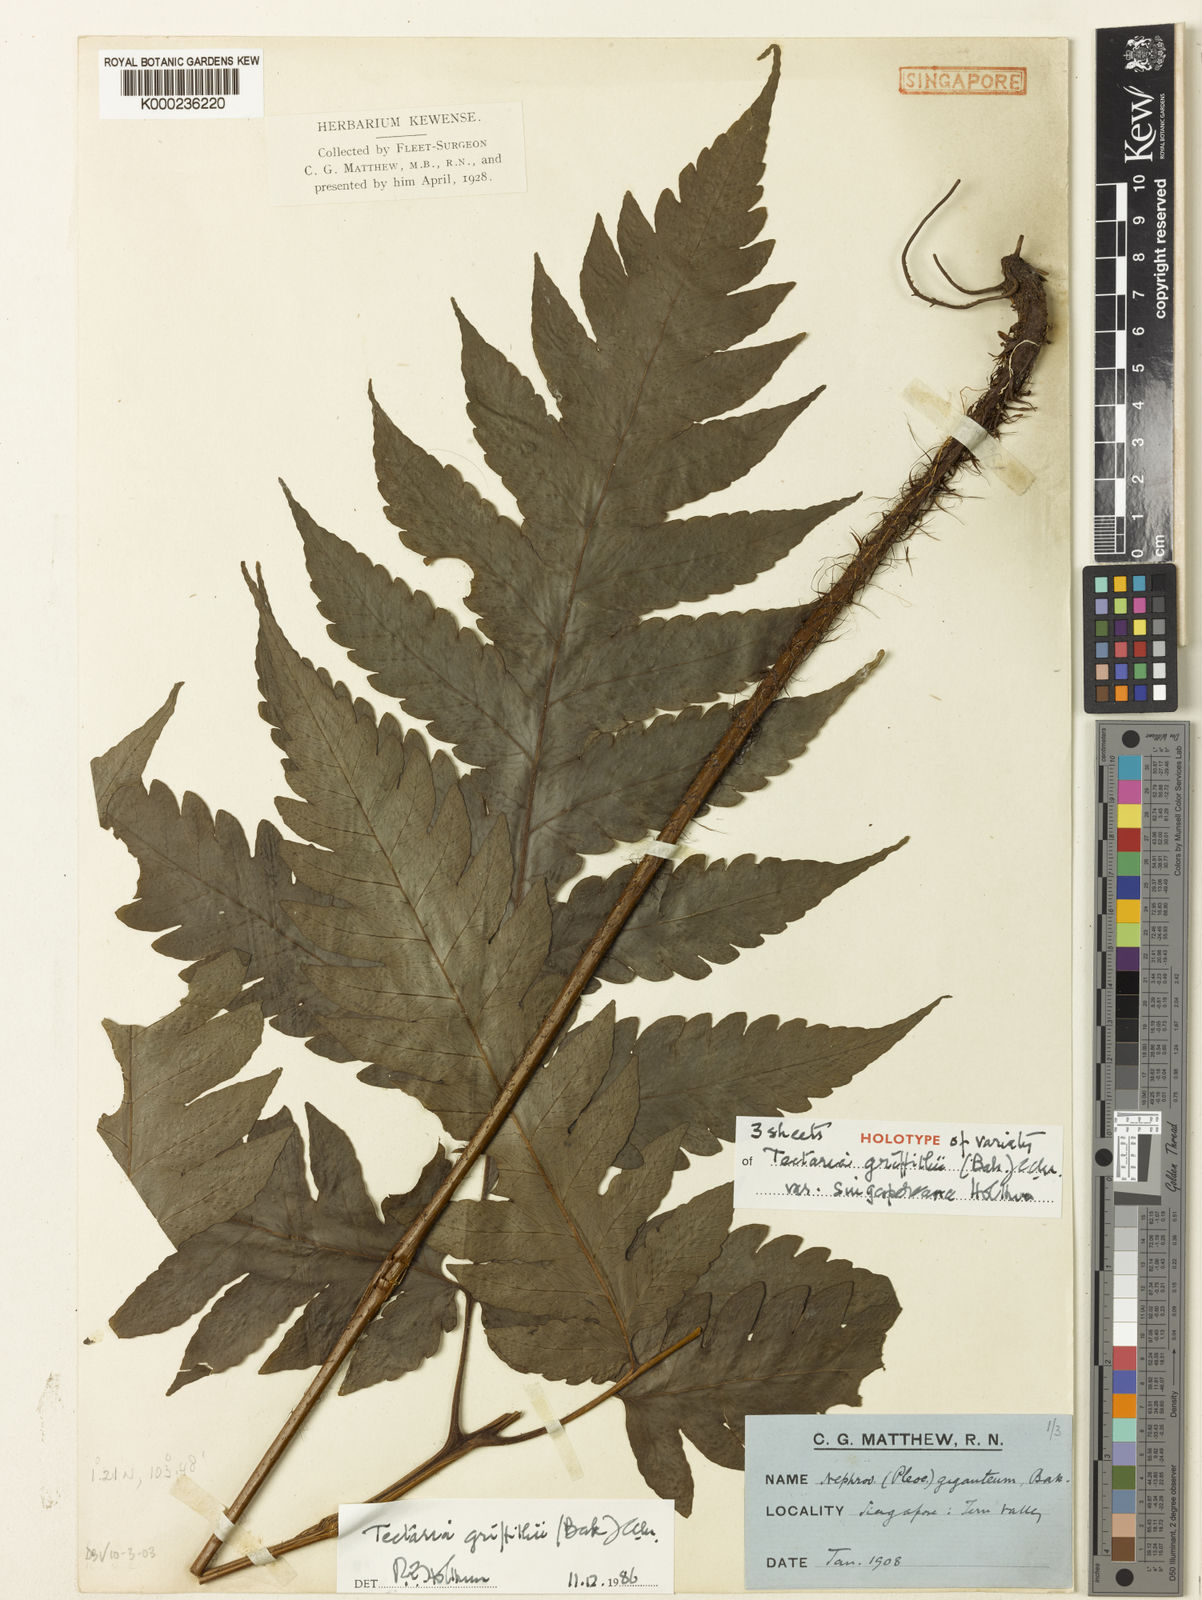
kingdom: Plantae
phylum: Tracheophyta
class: Polypodiopsida
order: Polypodiales
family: Tectariaceae
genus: Tectaria
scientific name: Tectaria multicaudata
